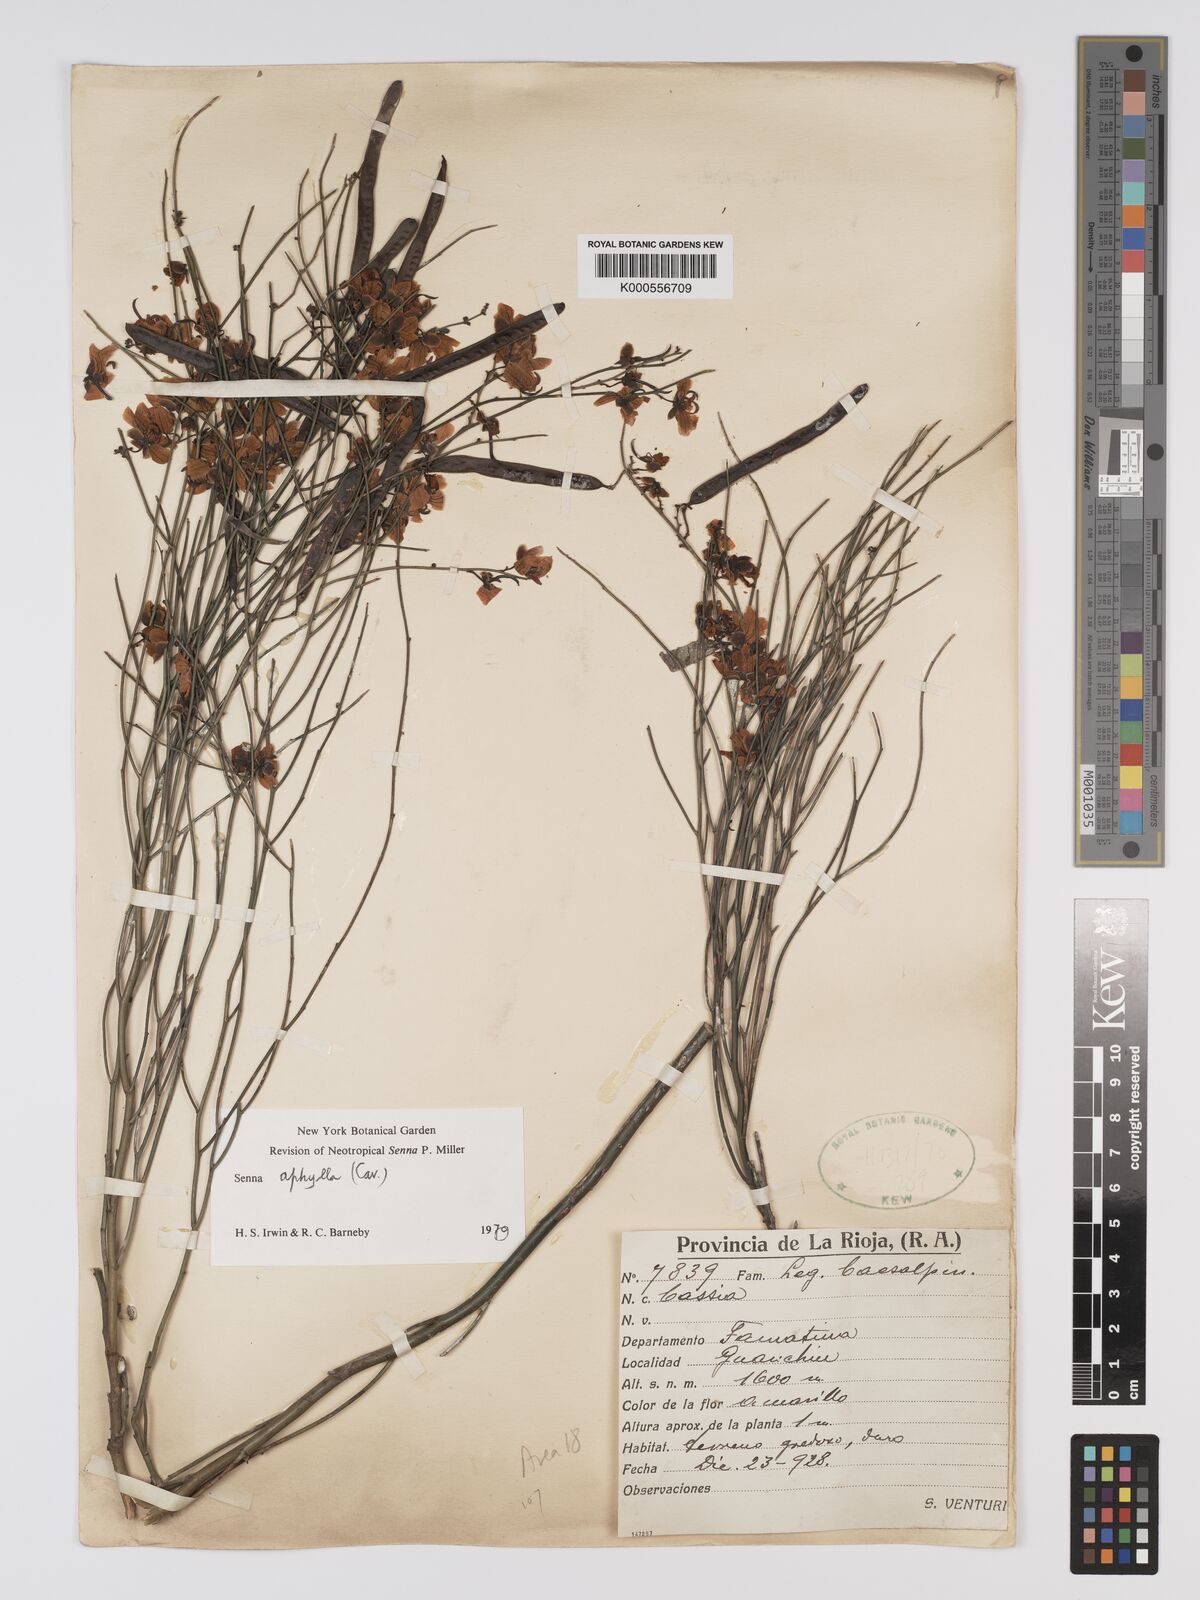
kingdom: Plantae
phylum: Tracheophyta
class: Magnoliopsida
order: Fabales
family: Fabaceae
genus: Senna
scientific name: Senna aphylla
